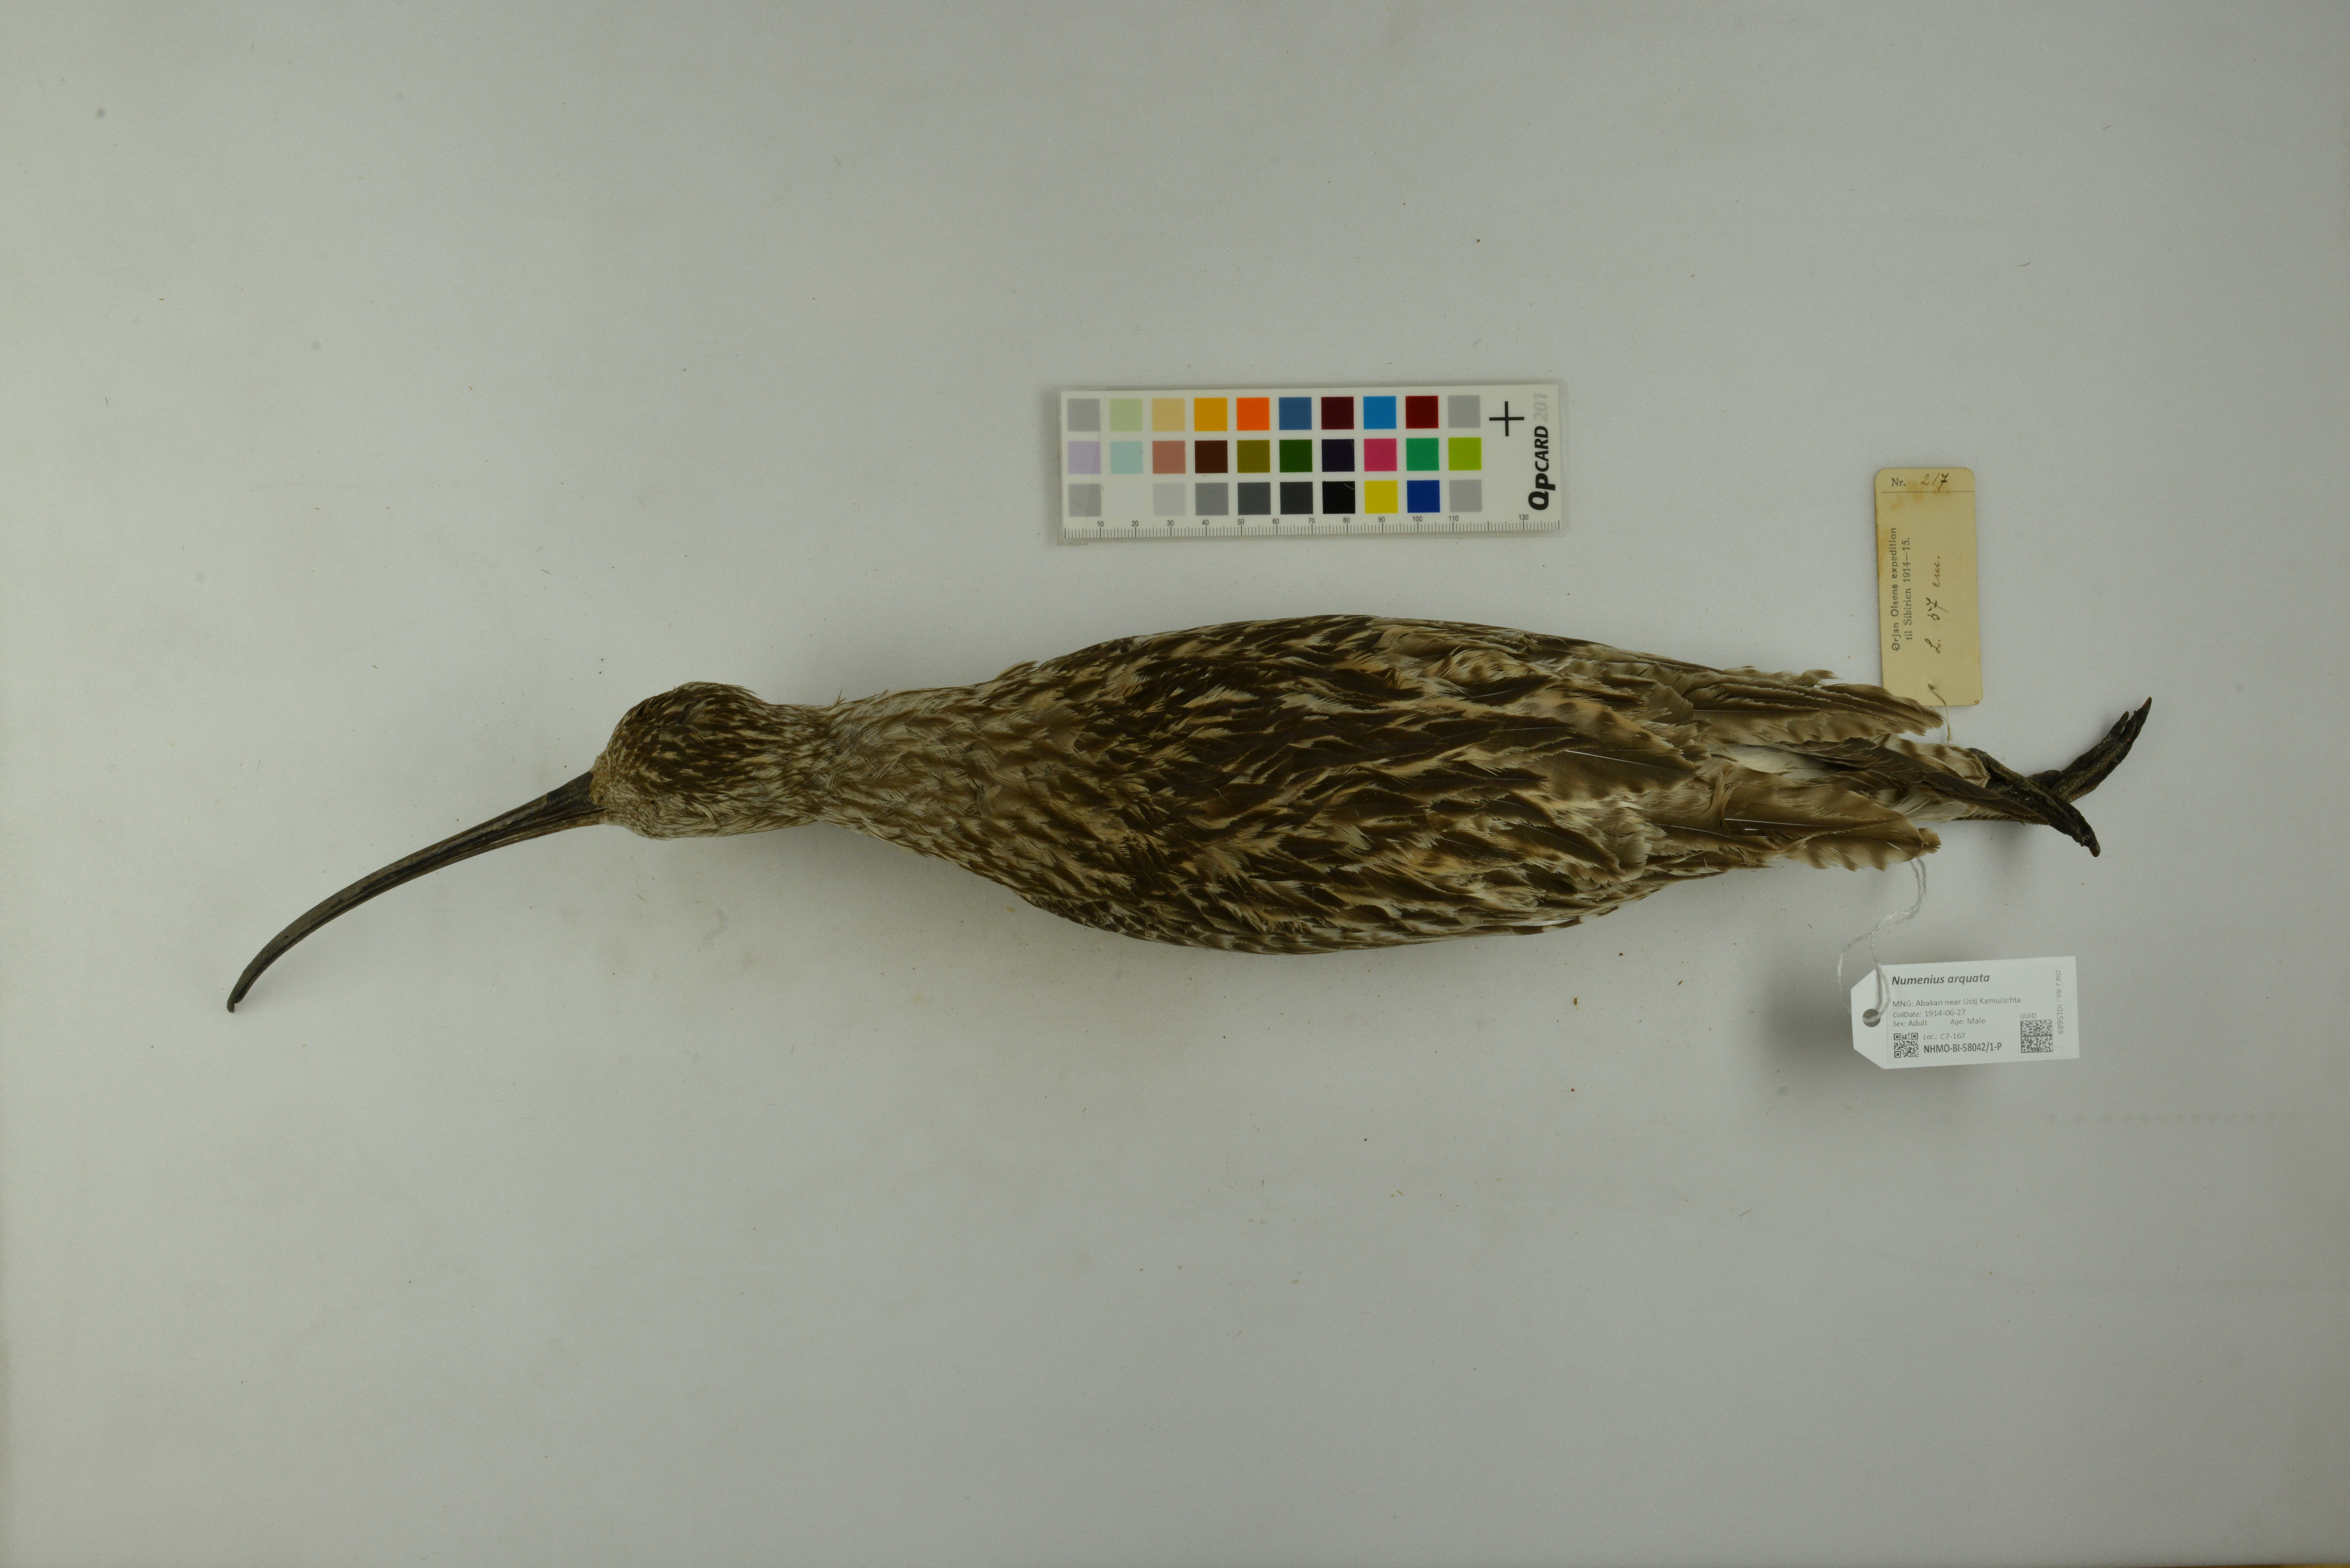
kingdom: Animalia
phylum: Chordata
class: Aves
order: Charadriiformes
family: Scolopacidae
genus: Numenius
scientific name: Numenius arquata
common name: Eurasian curlew
